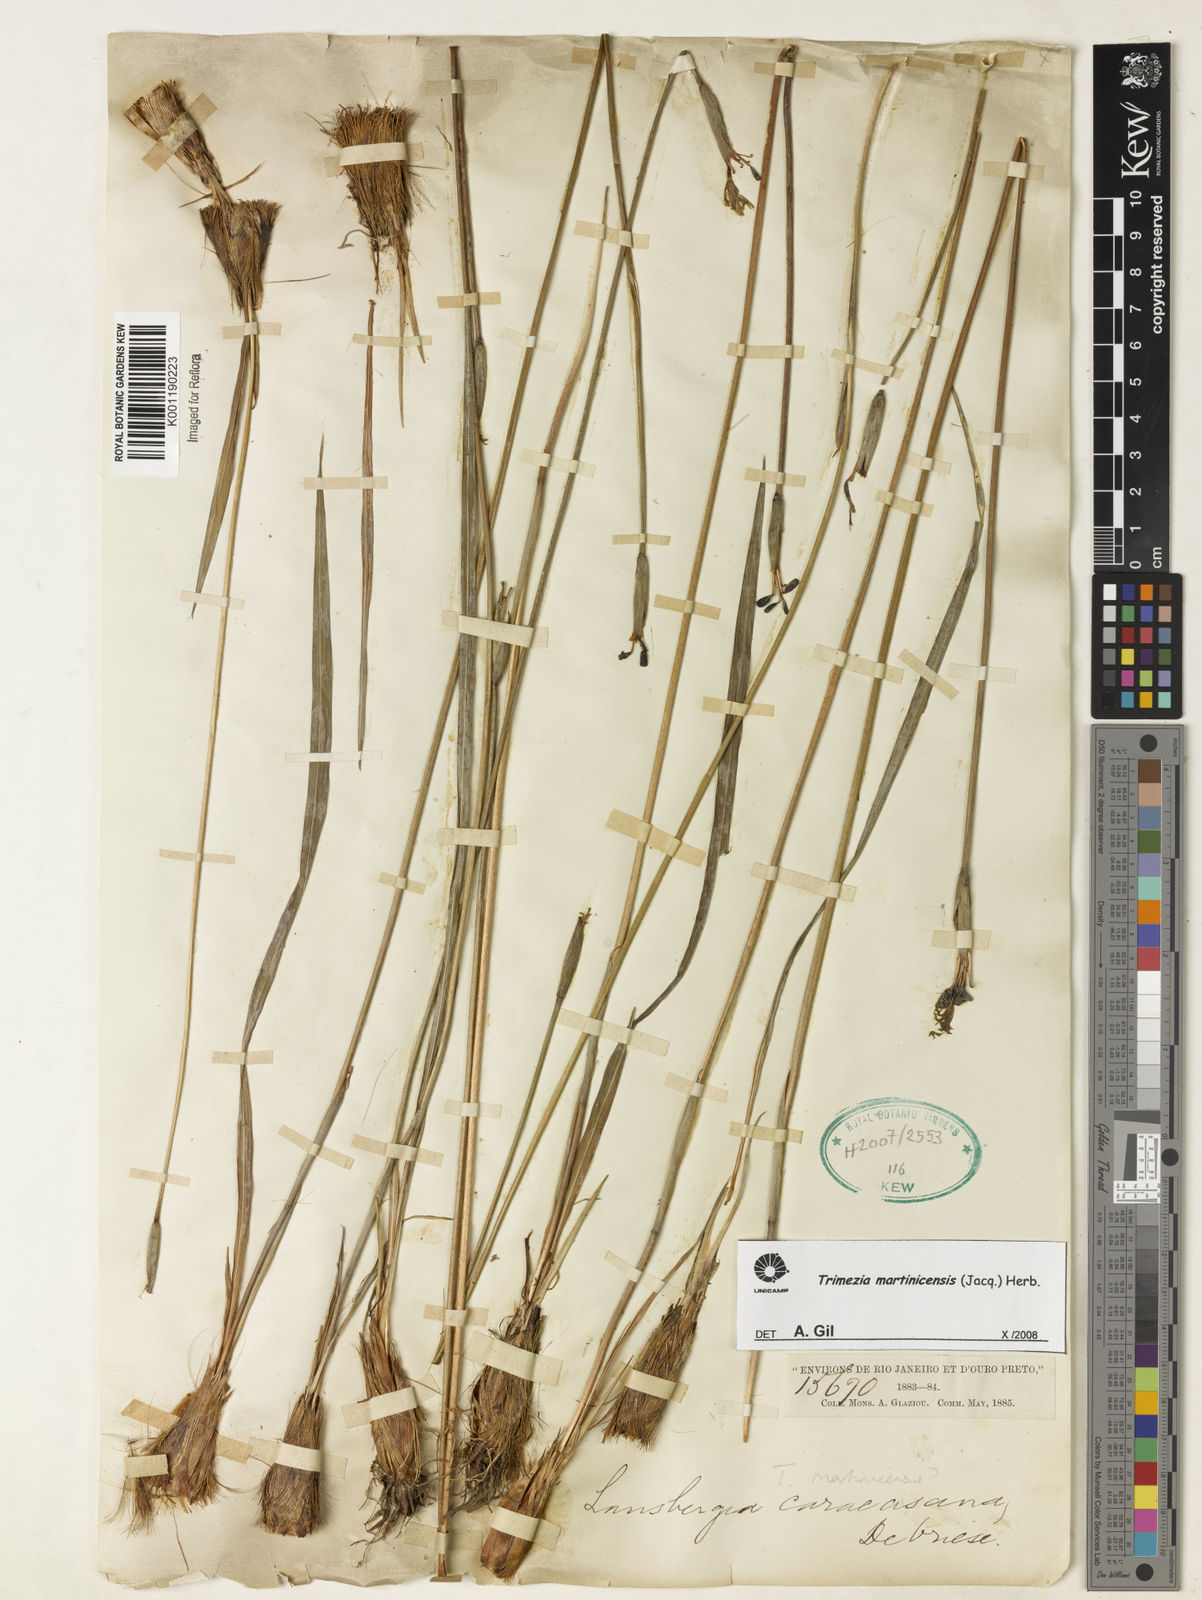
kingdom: Plantae
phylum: Tracheophyta
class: Liliopsida
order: Asparagales
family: Iridaceae
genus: Trimezia
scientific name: Trimezia martinicensis
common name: Martinique trimezia
